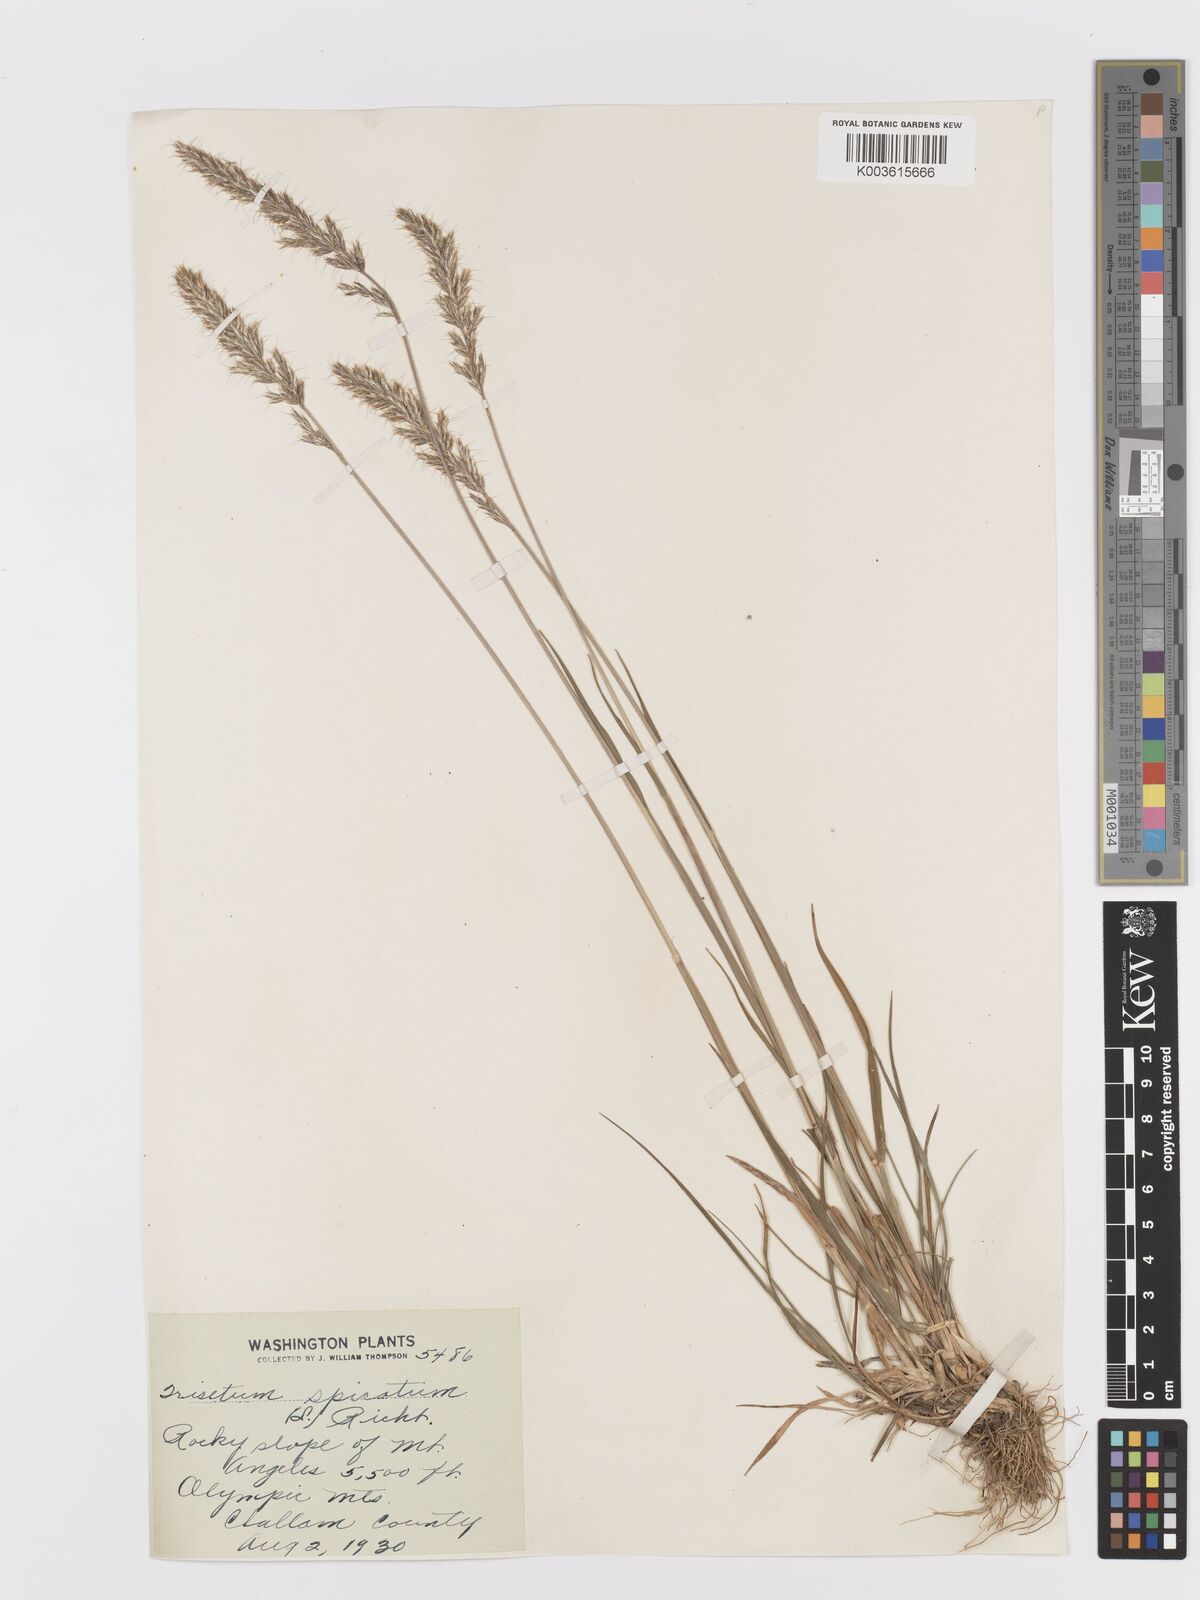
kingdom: Plantae
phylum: Tracheophyta
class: Liliopsida
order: Poales
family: Poaceae
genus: Koeleria
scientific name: Koeleria spicata
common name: Mountain trisetum
